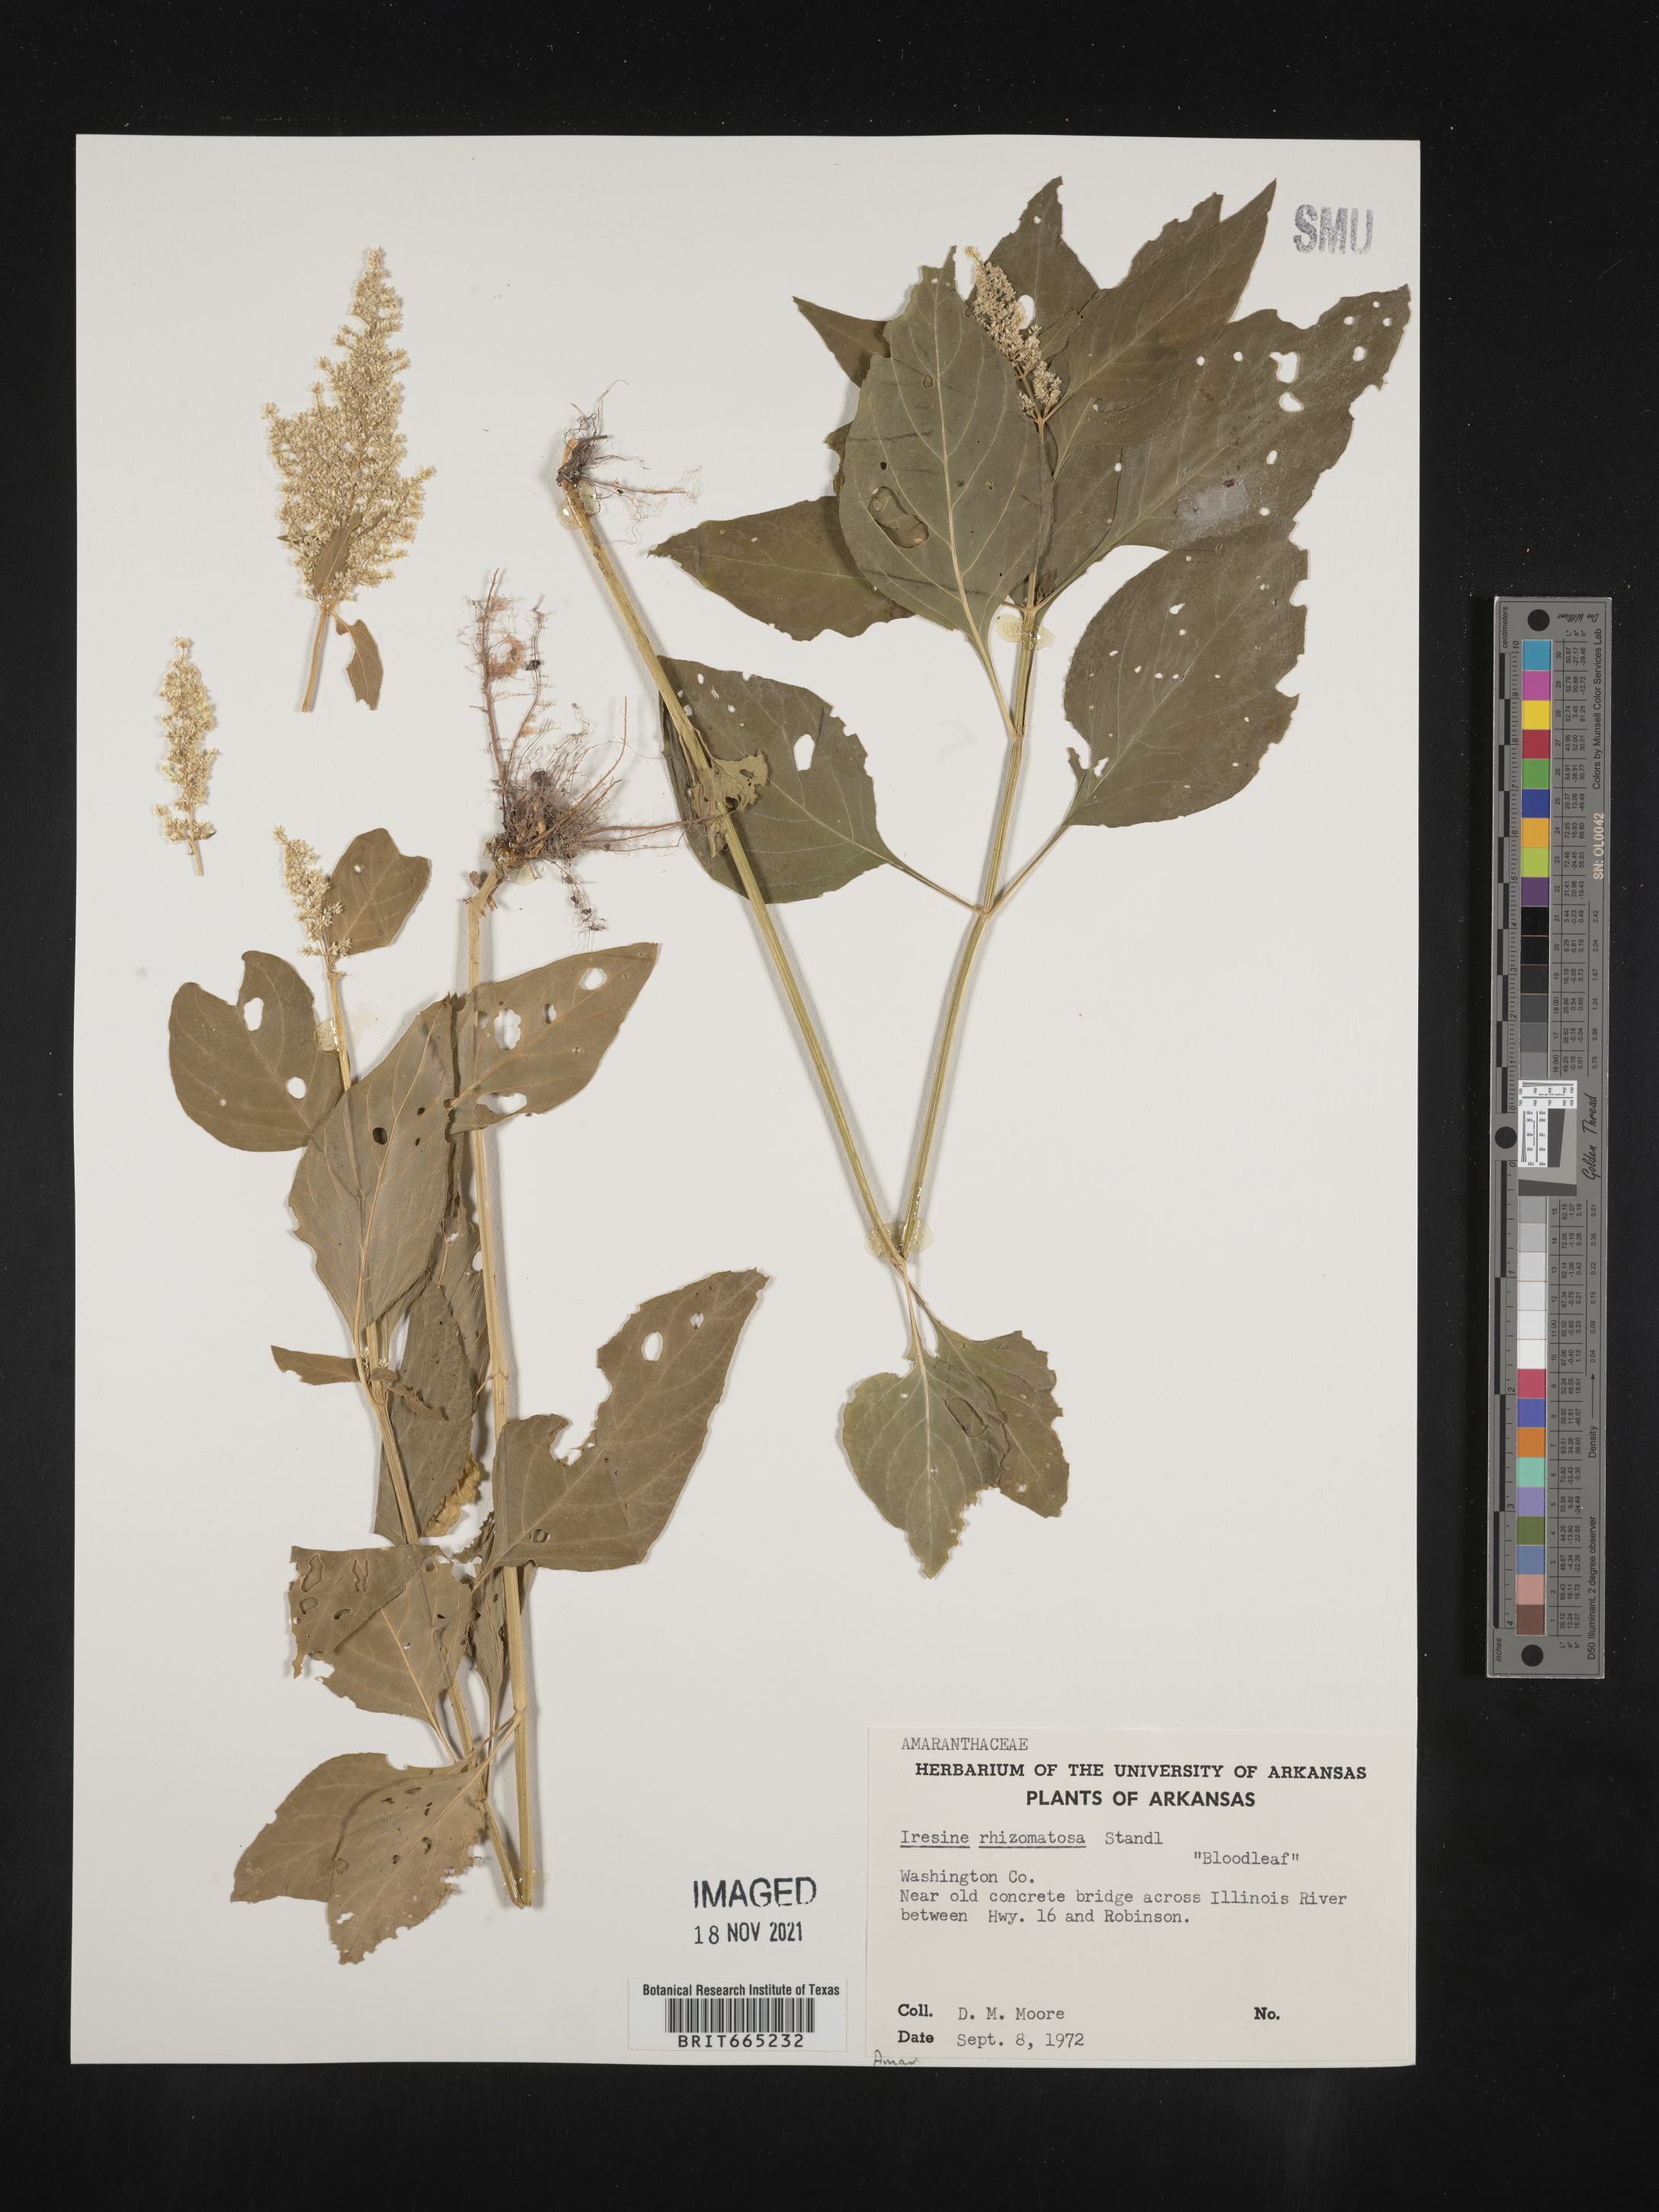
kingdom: Plantae
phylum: Tracheophyta
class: Magnoliopsida
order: Caryophyllales
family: Amaranthaceae
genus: Iresine
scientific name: Iresine rhizomatosa
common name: Juda's-bush
